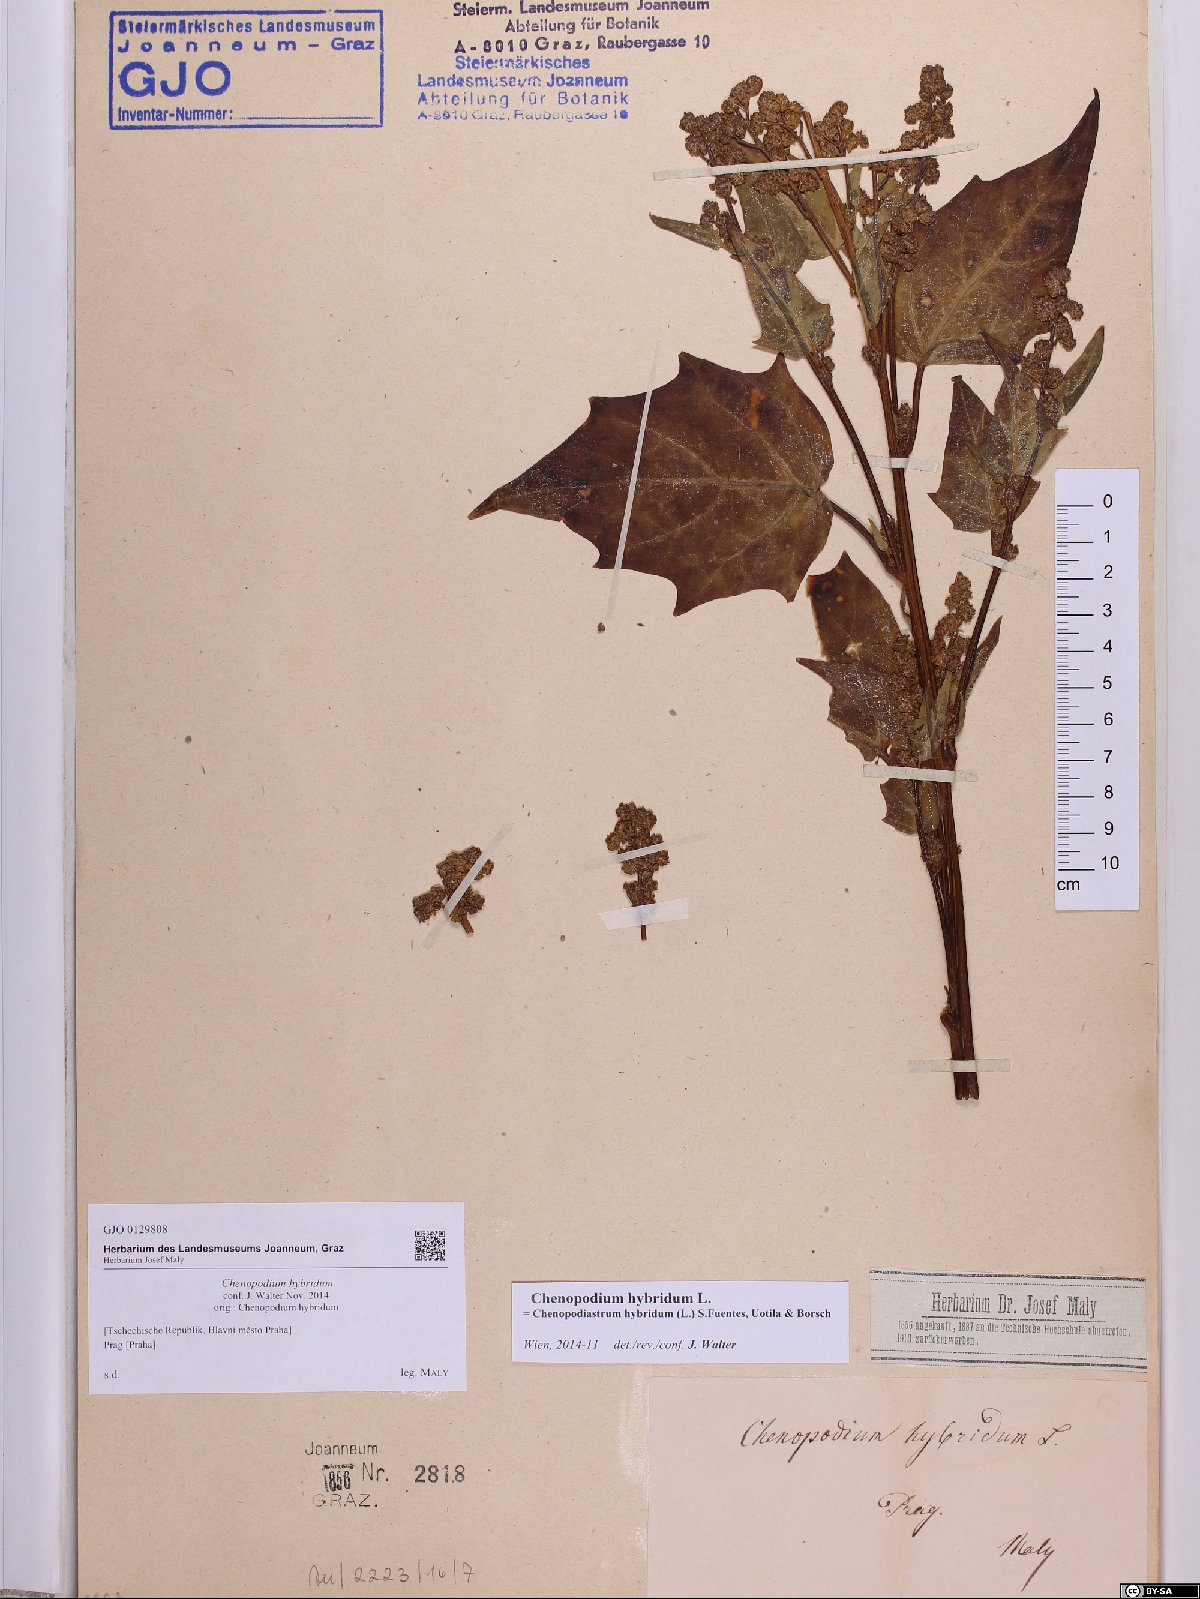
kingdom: Plantae
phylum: Tracheophyta
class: Magnoliopsida
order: Caryophyllales
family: Amaranthaceae
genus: Chenopodiastrum
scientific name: Chenopodiastrum hybridum
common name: Mapleleaf goosefoot
